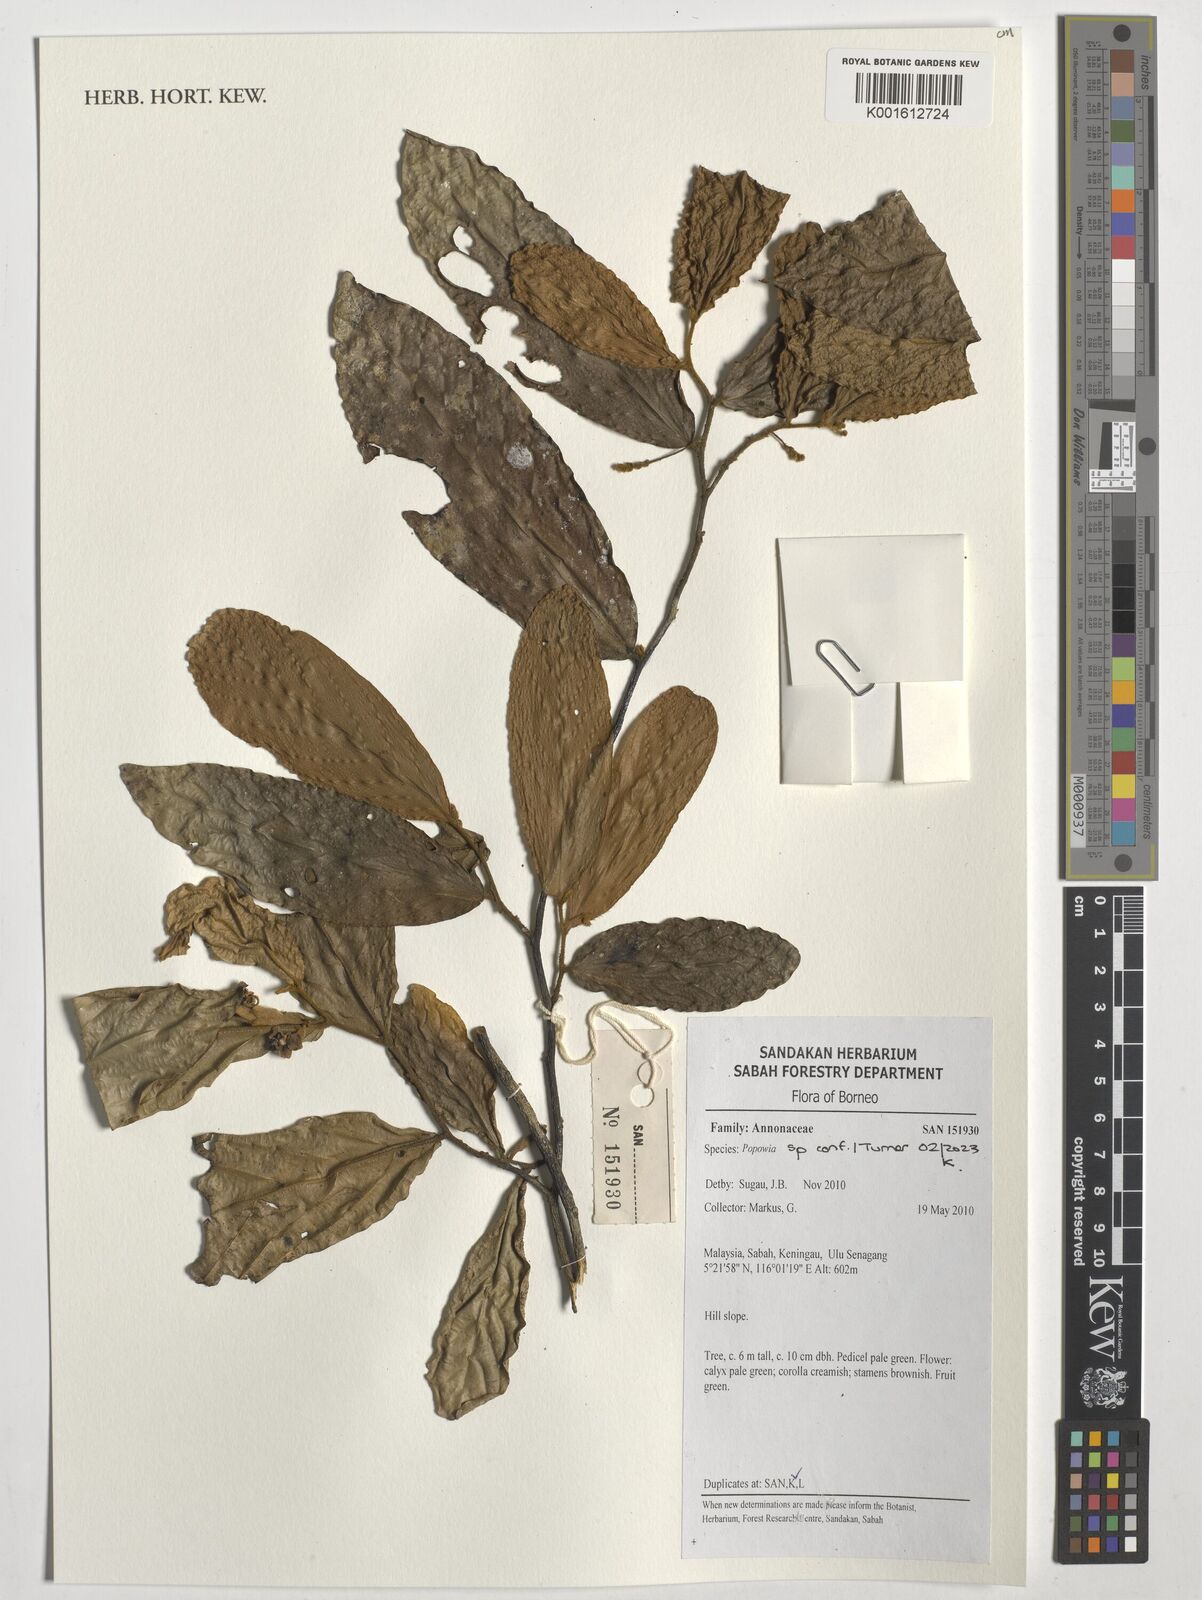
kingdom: Plantae
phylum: Tracheophyta
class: Magnoliopsida
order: Magnoliales
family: Annonaceae
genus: Popowia
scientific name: Popowia
